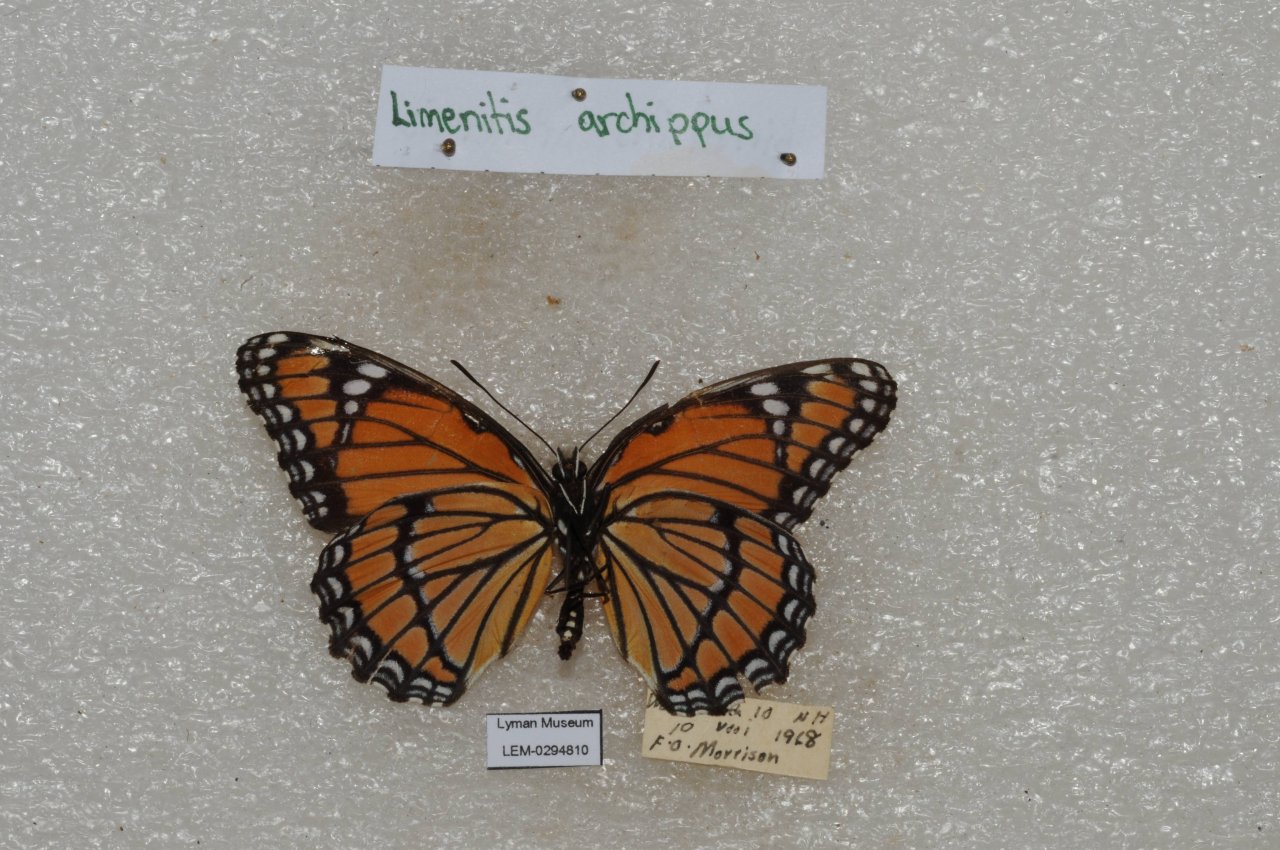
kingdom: Animalia
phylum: Arthropoda
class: Insecta
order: Lepidoptera
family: Nymphalidae
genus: Limenitis
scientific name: Limenitis archippus
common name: Viceroy
